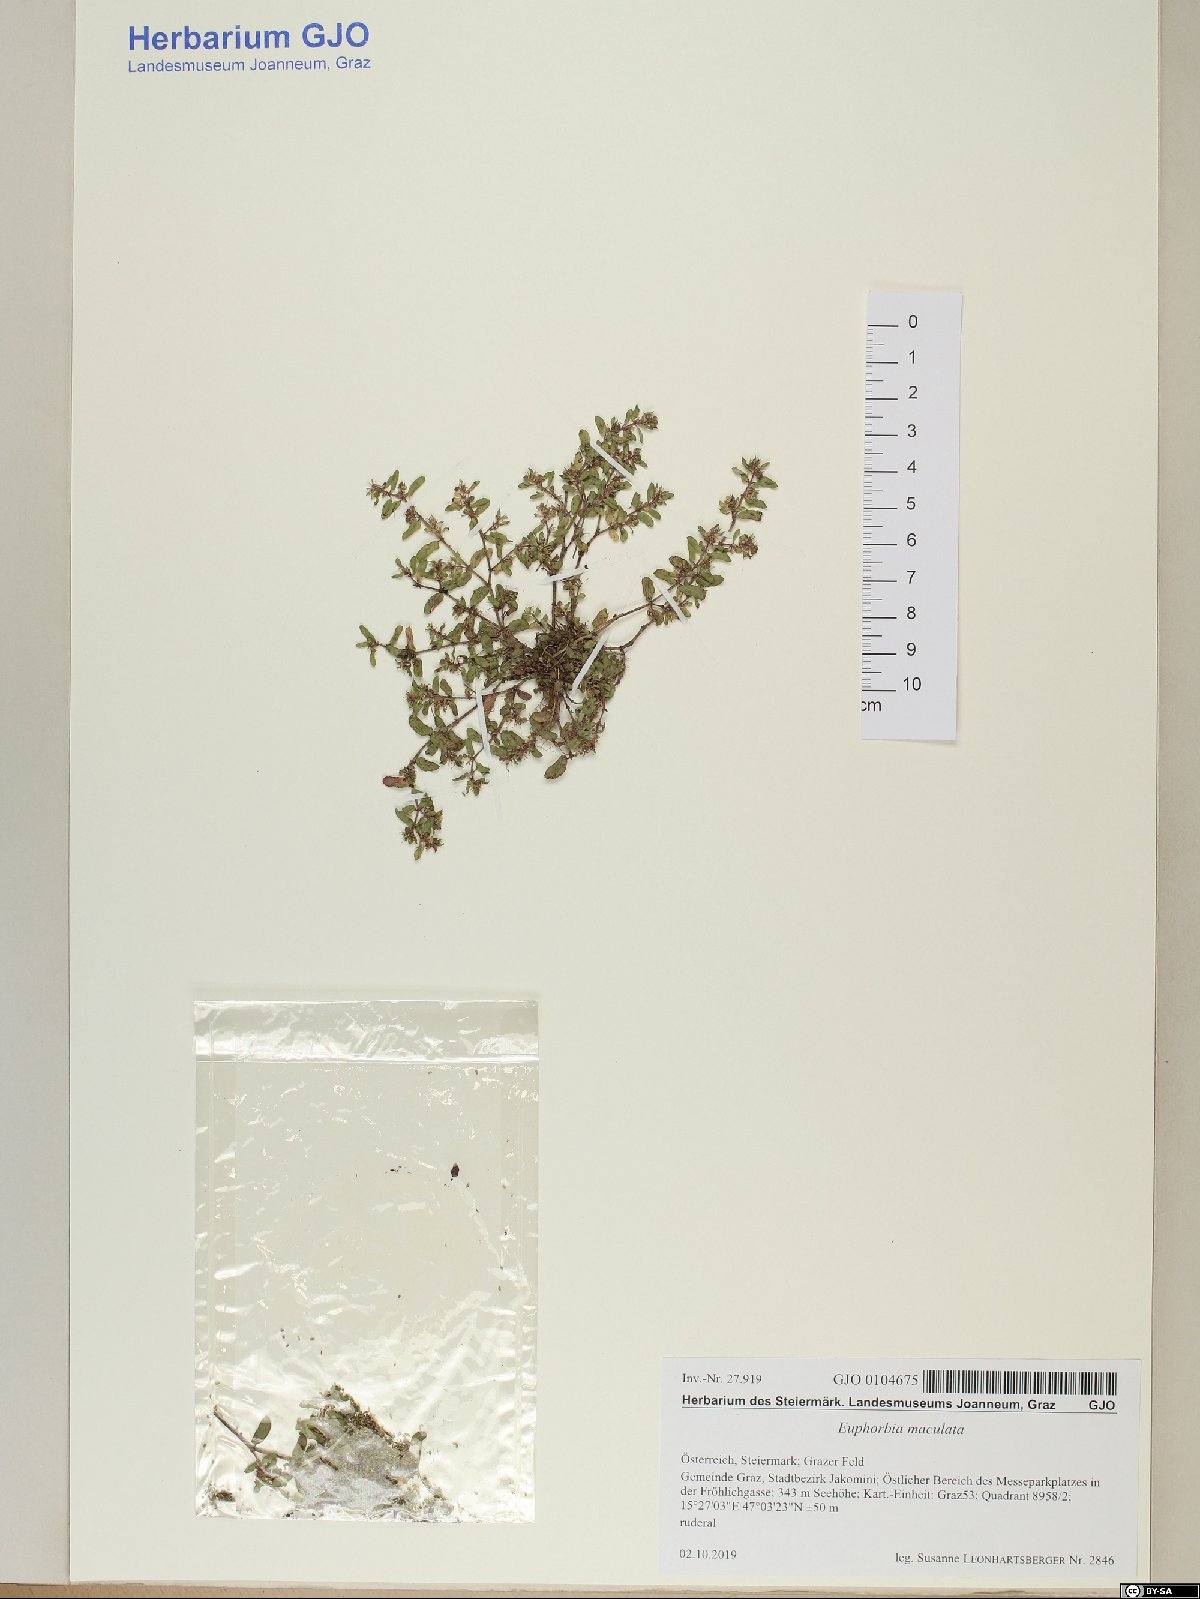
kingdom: Plantae
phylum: Tracheophyta
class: Magnoliopsida
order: Malpighiales
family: Euphorbiaceae
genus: Euphorbia
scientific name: Euphorbia maculata
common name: Spotted spurge
